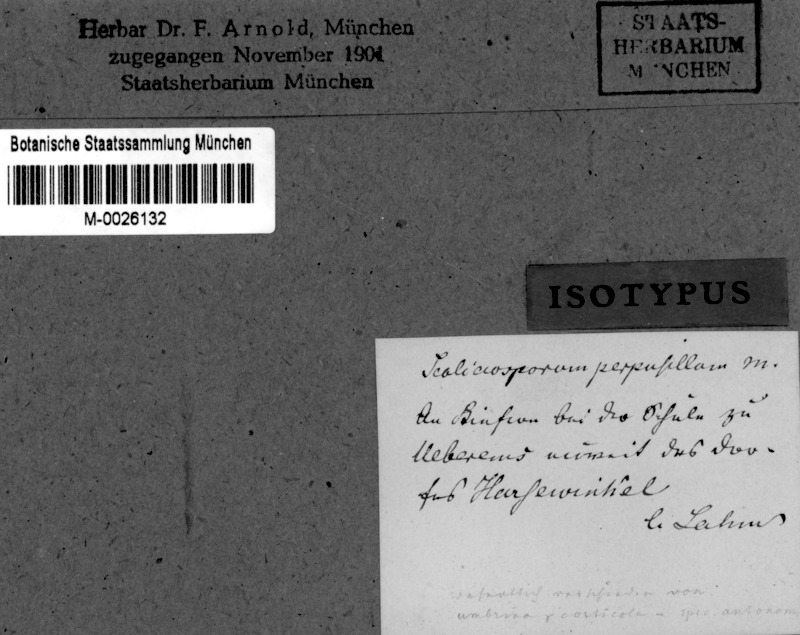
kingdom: Fungi
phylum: Ascomycota
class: Lecanoromycetes
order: Lecanorales
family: Scoliciosporaceae
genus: Scoliciosporum
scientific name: Scoliciosporum umbrinum
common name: Umber dot lichen
